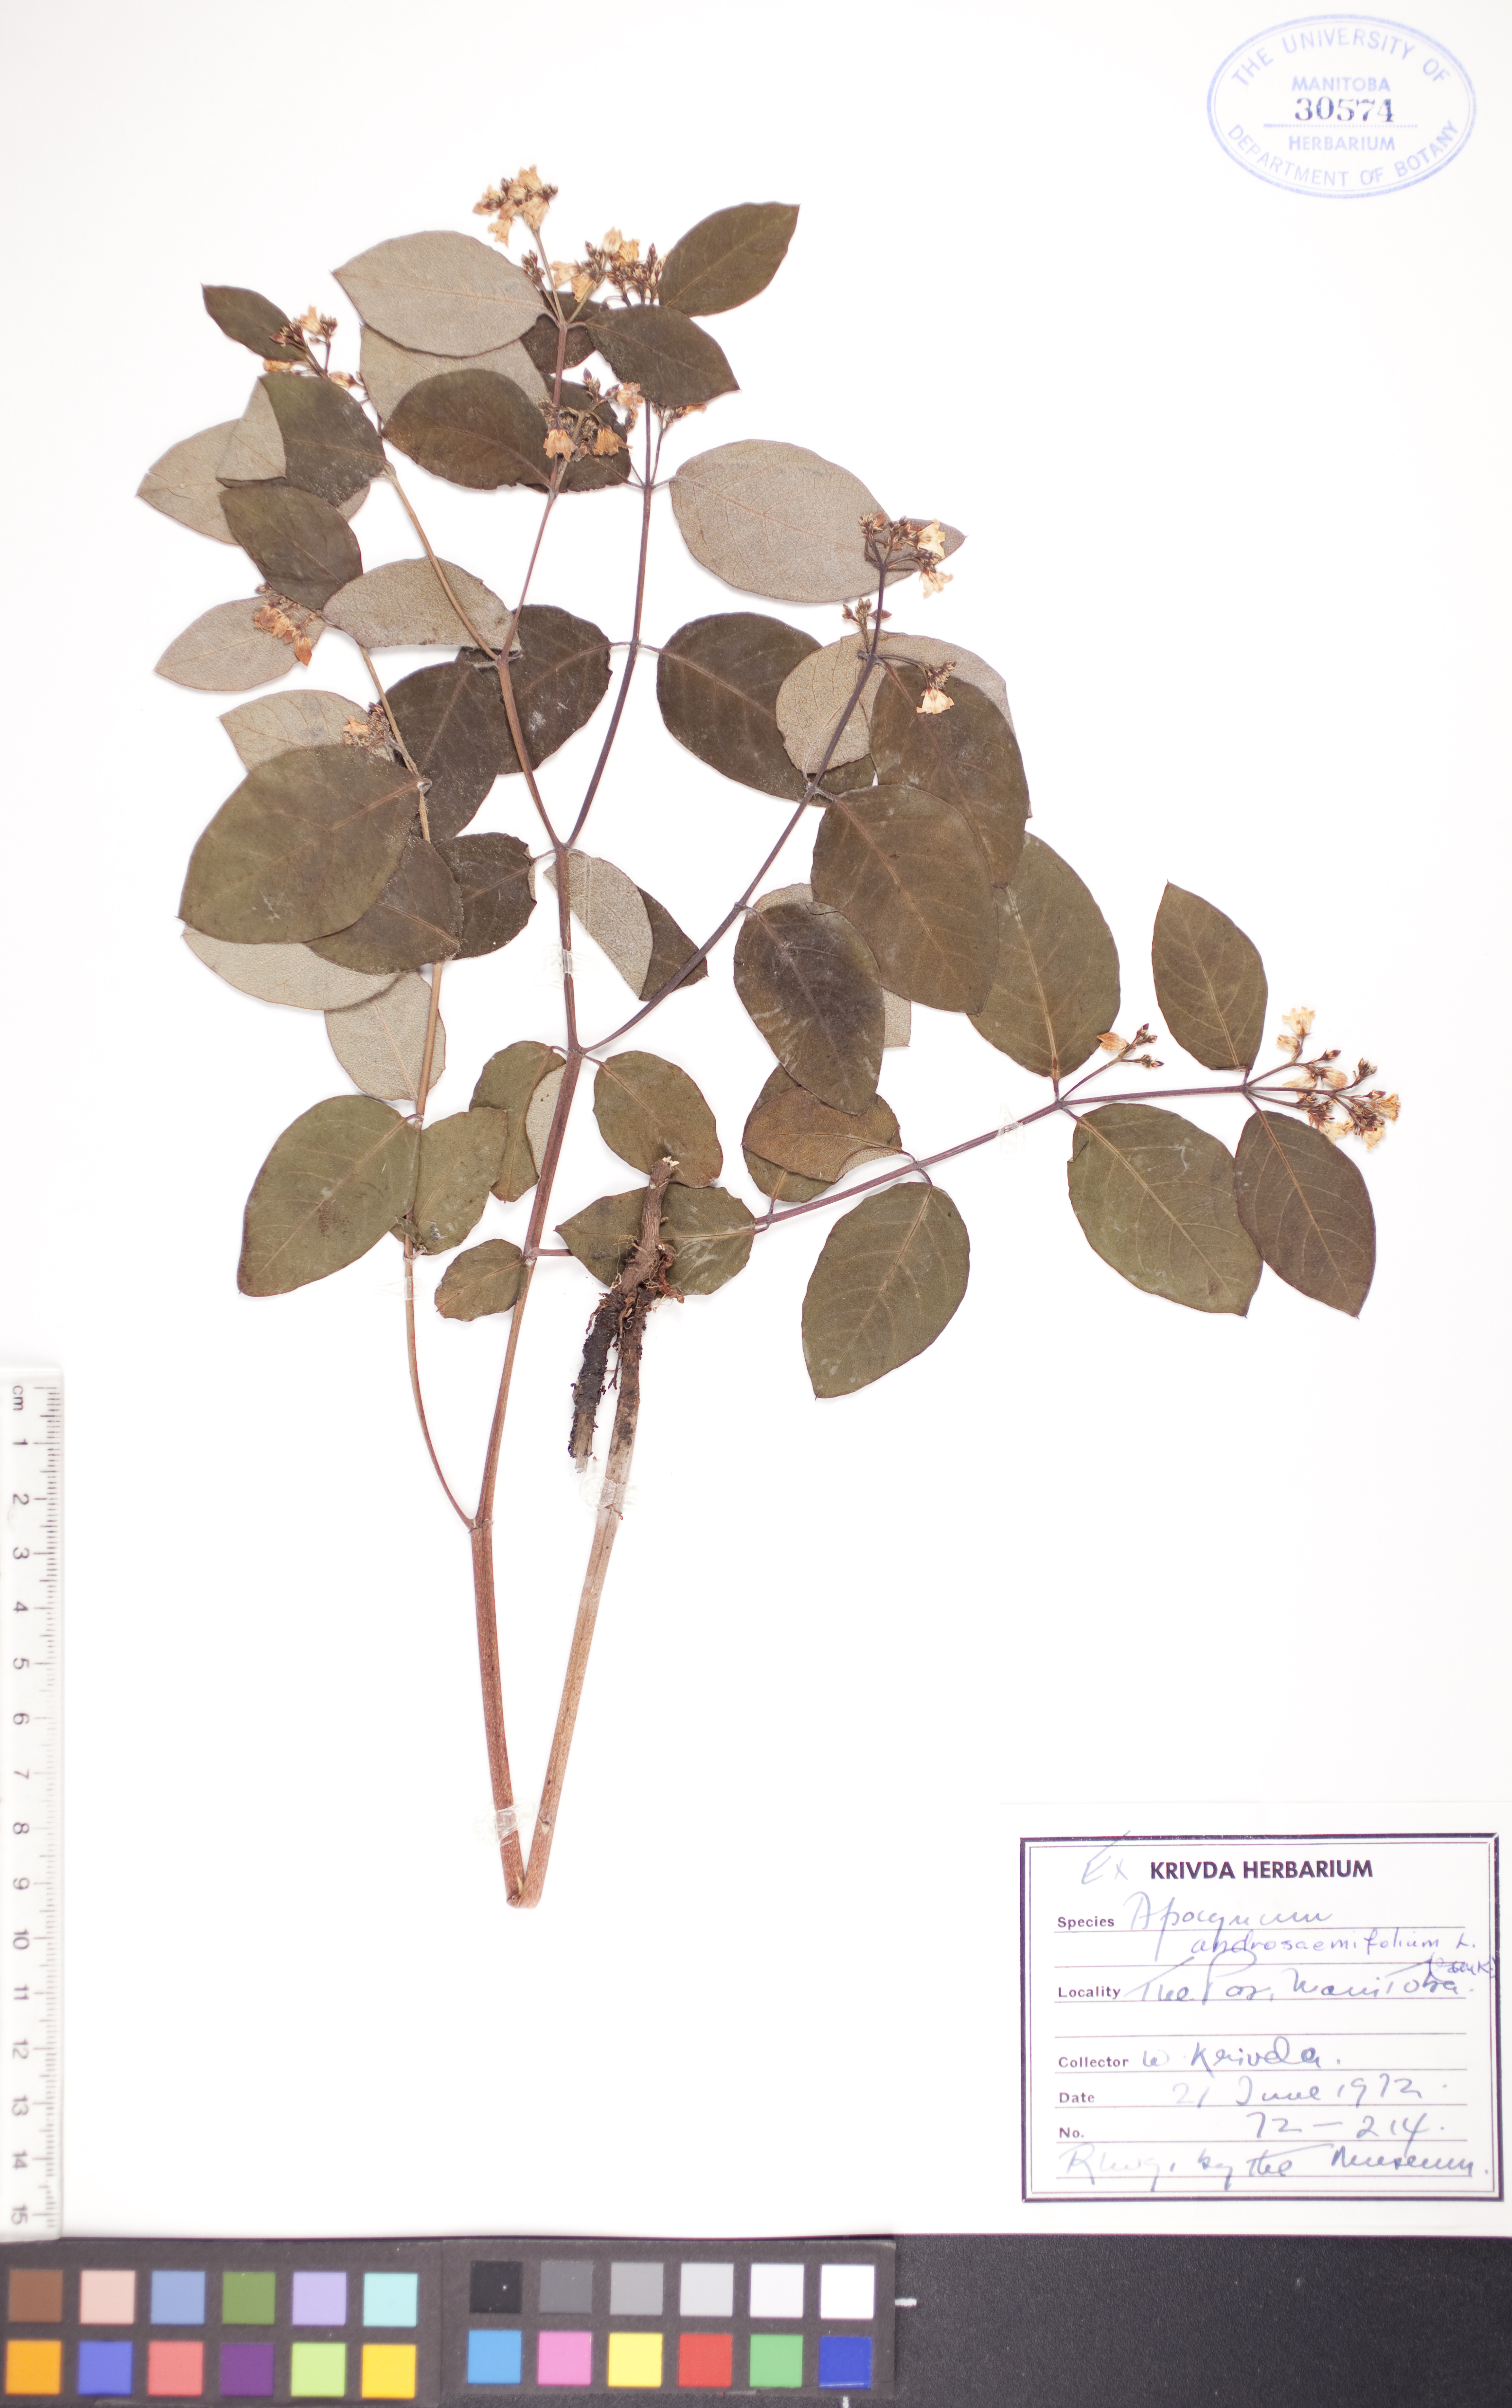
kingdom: Plantae
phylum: Tracheophyta
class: Magnoliopsida
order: Gentianales
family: Apocynaceae
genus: Apocynum
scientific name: Apocynum androsaemifolium
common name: Spreading dogbane
